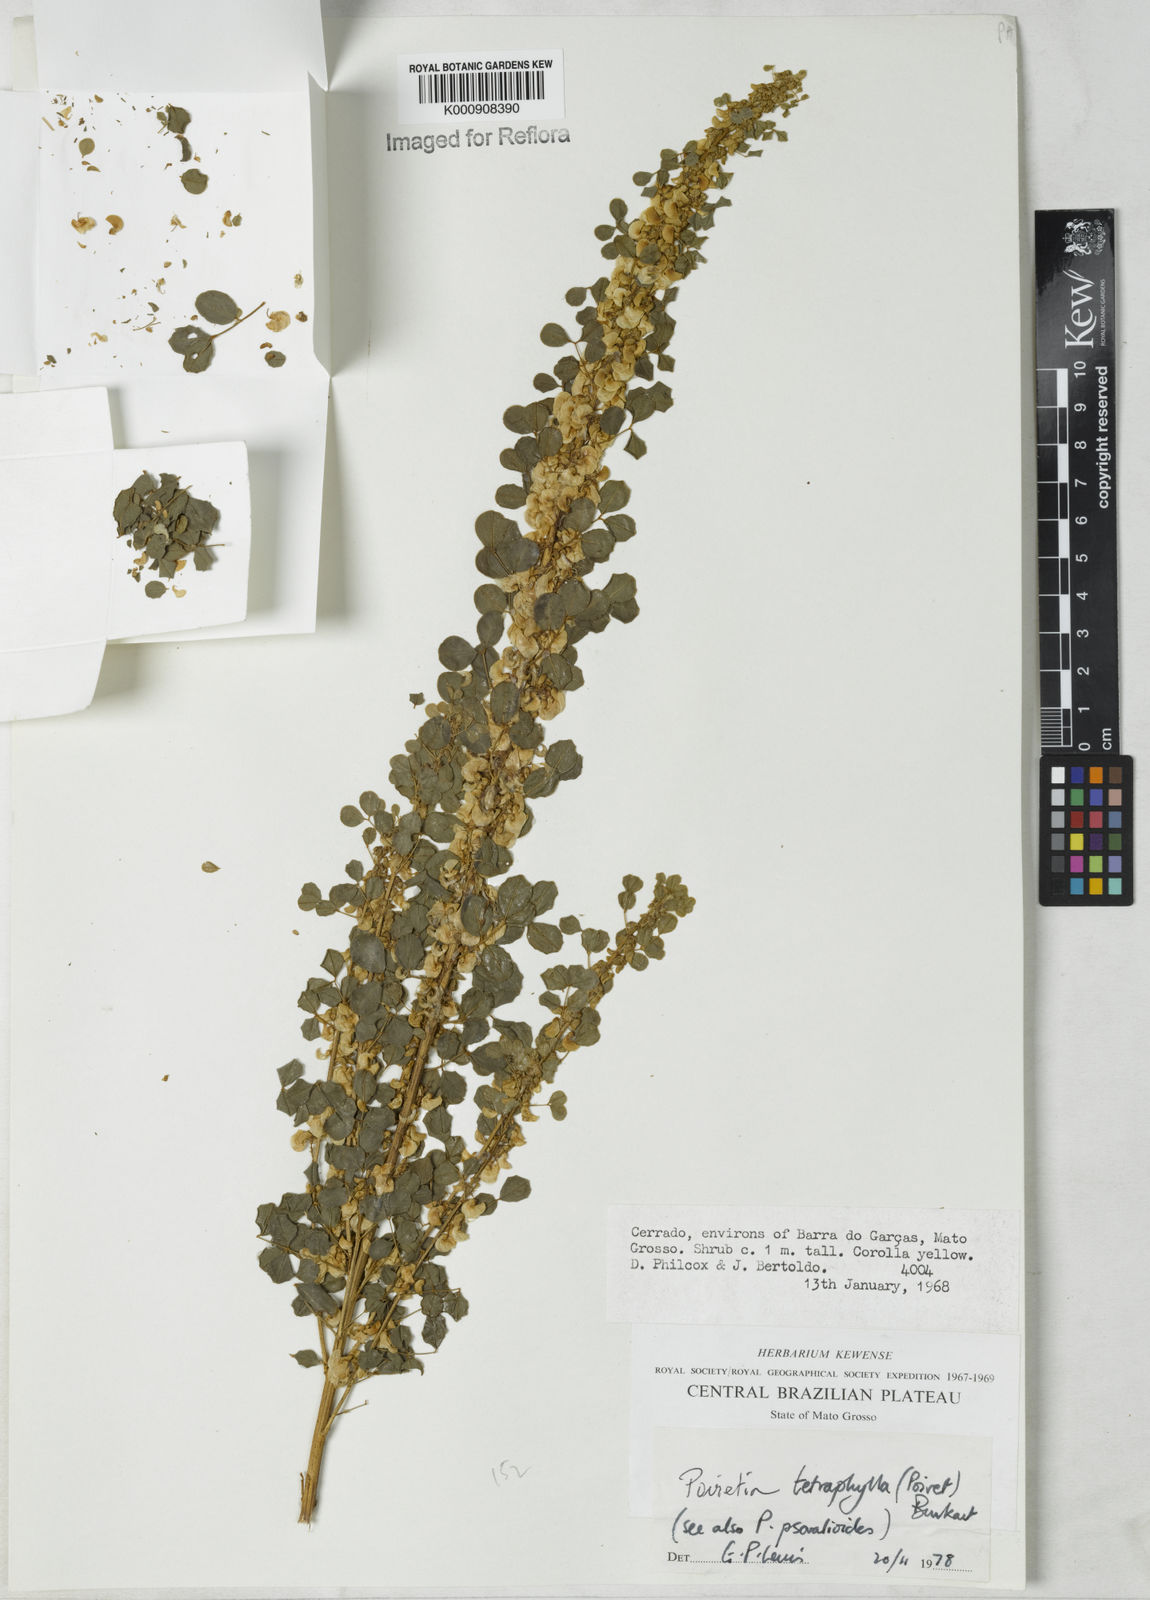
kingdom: Plantae
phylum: Tracheophyta
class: Magnoliopsida
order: Fabales
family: Fabaceae
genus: Poiretia
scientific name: Poiretia tetraphylla
